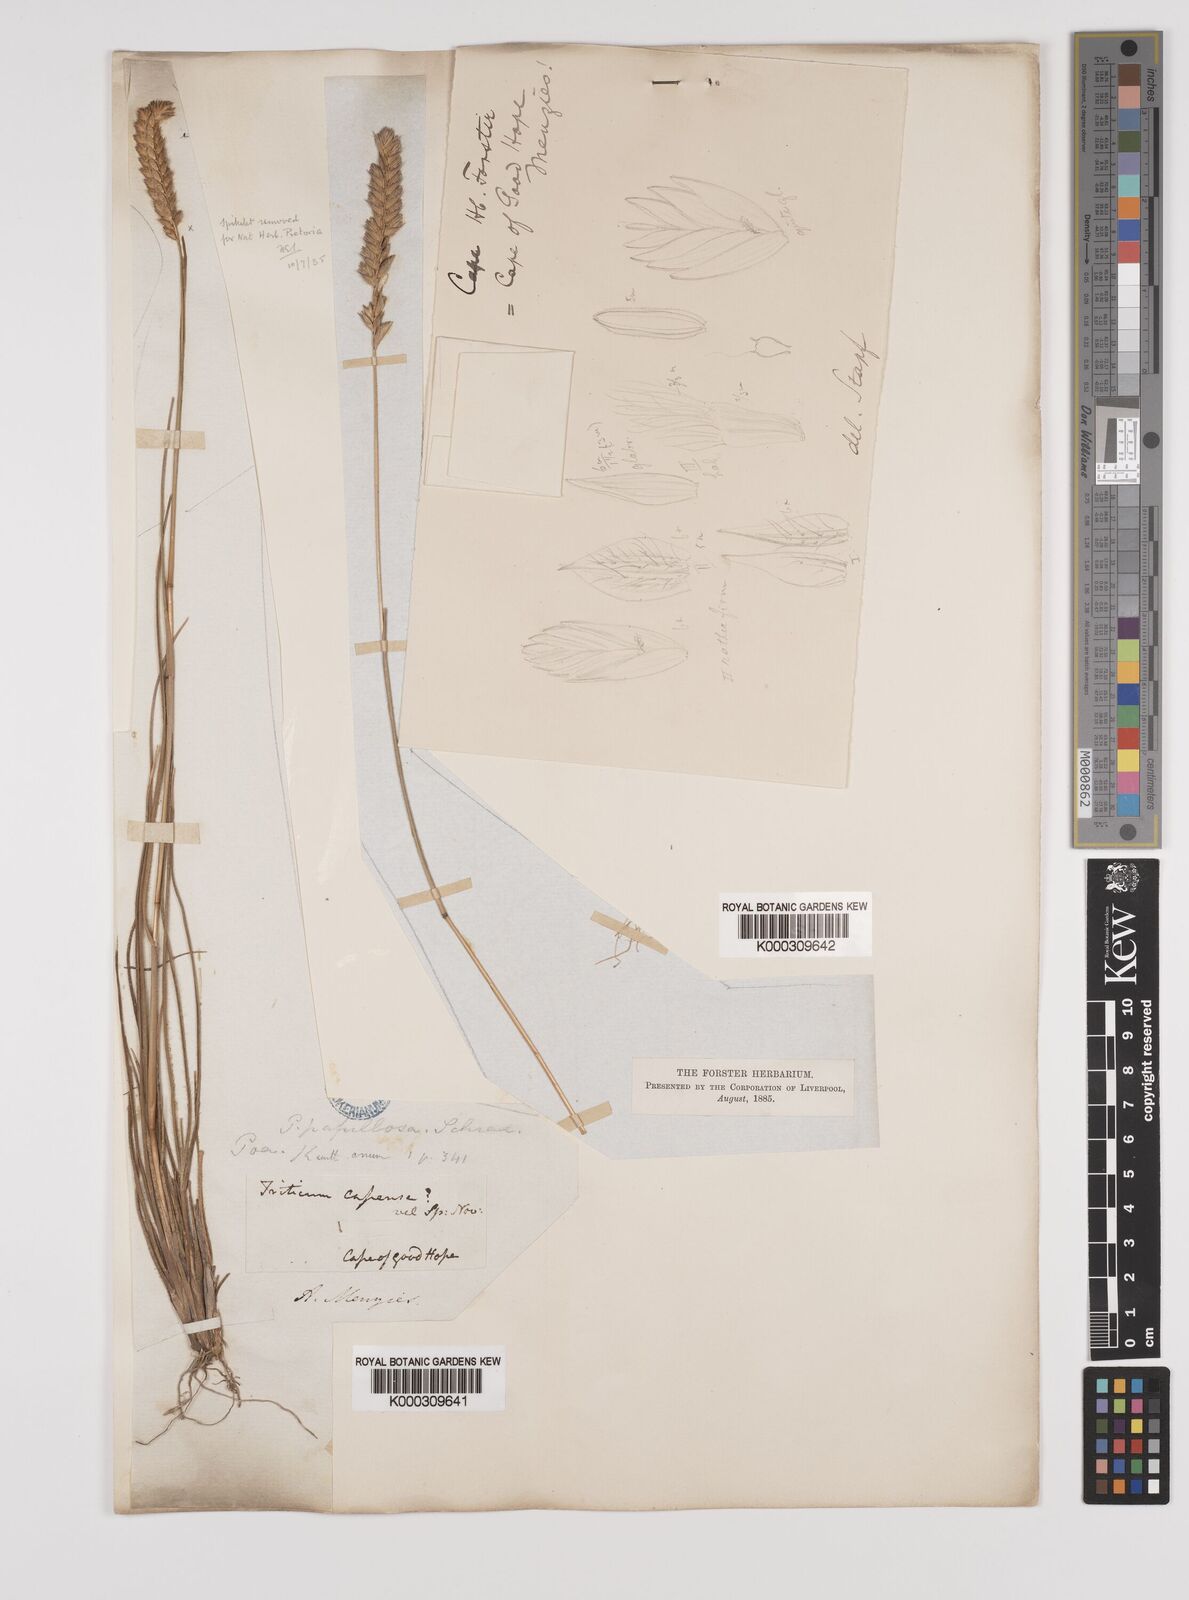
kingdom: Plantae
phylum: Tracheophyta
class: Liliopsida
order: Poales
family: Poaceae
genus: Tribolium
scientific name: Tribolium uniolae
